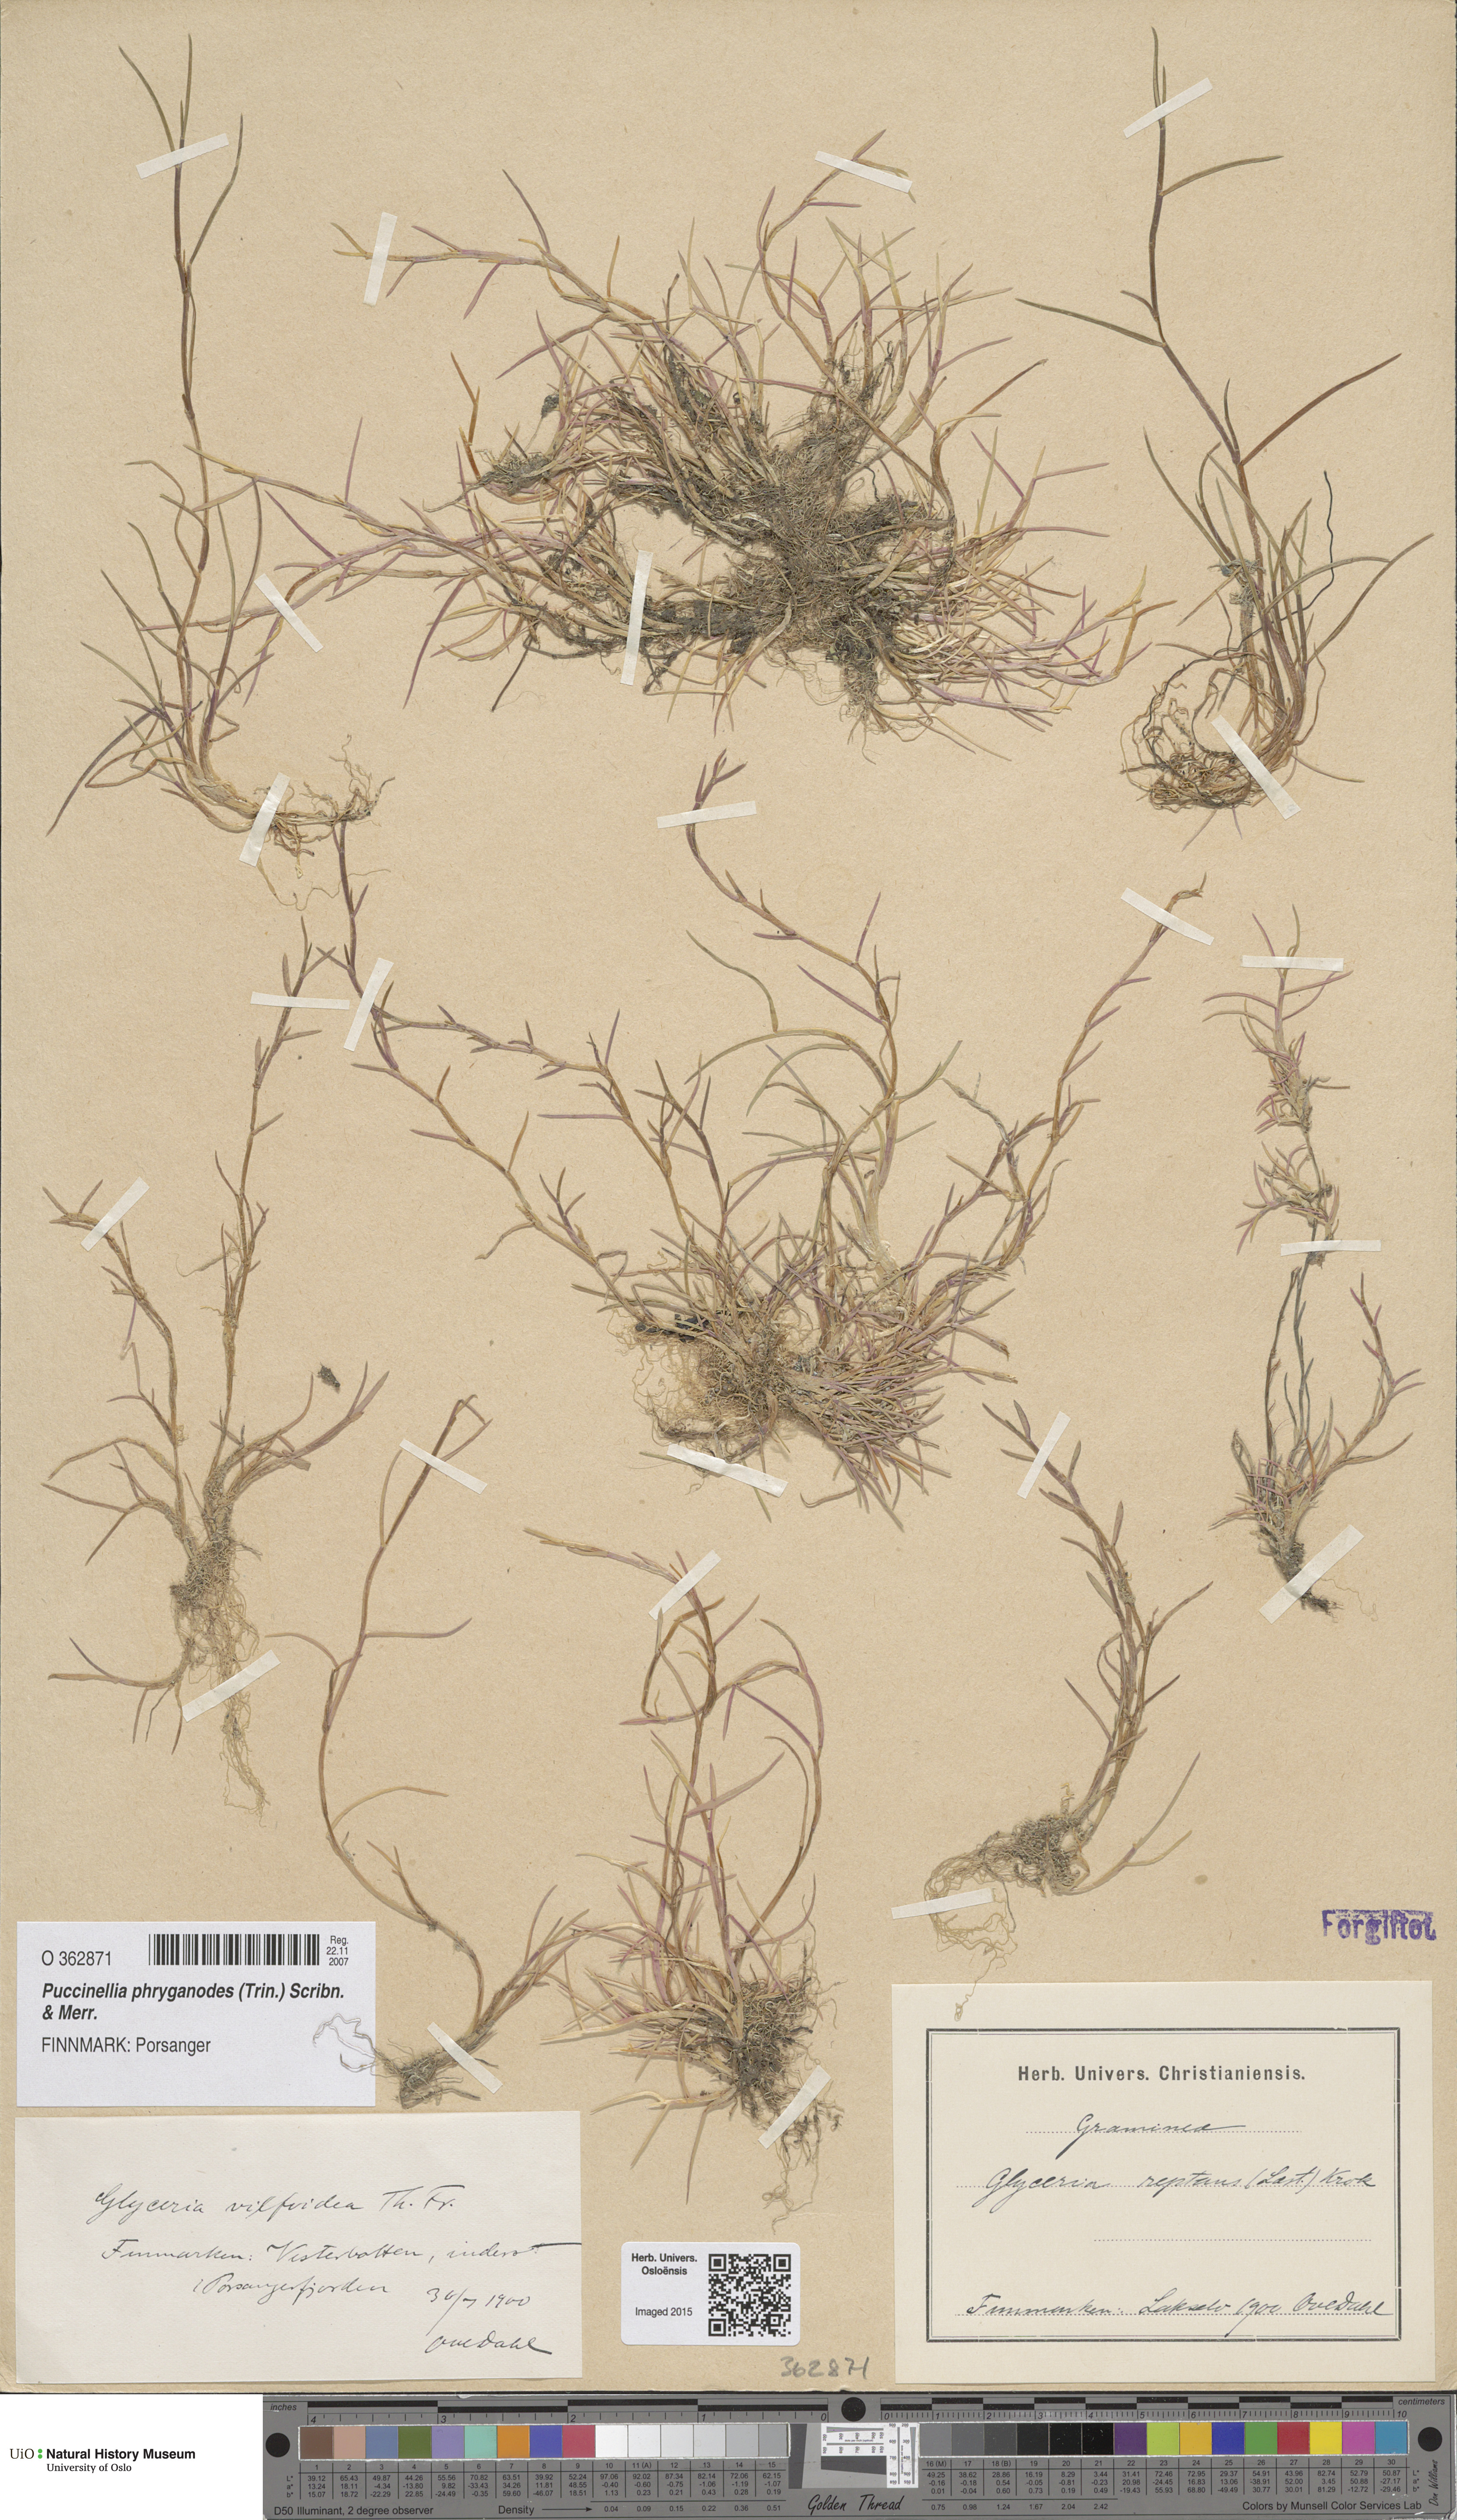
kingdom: Plantae
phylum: Tracheophyta
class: Liliopsida
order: Poales
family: Poaceae
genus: Puccinellia
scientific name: Puccinellia phryganodes
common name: Creeping alkaligrass
